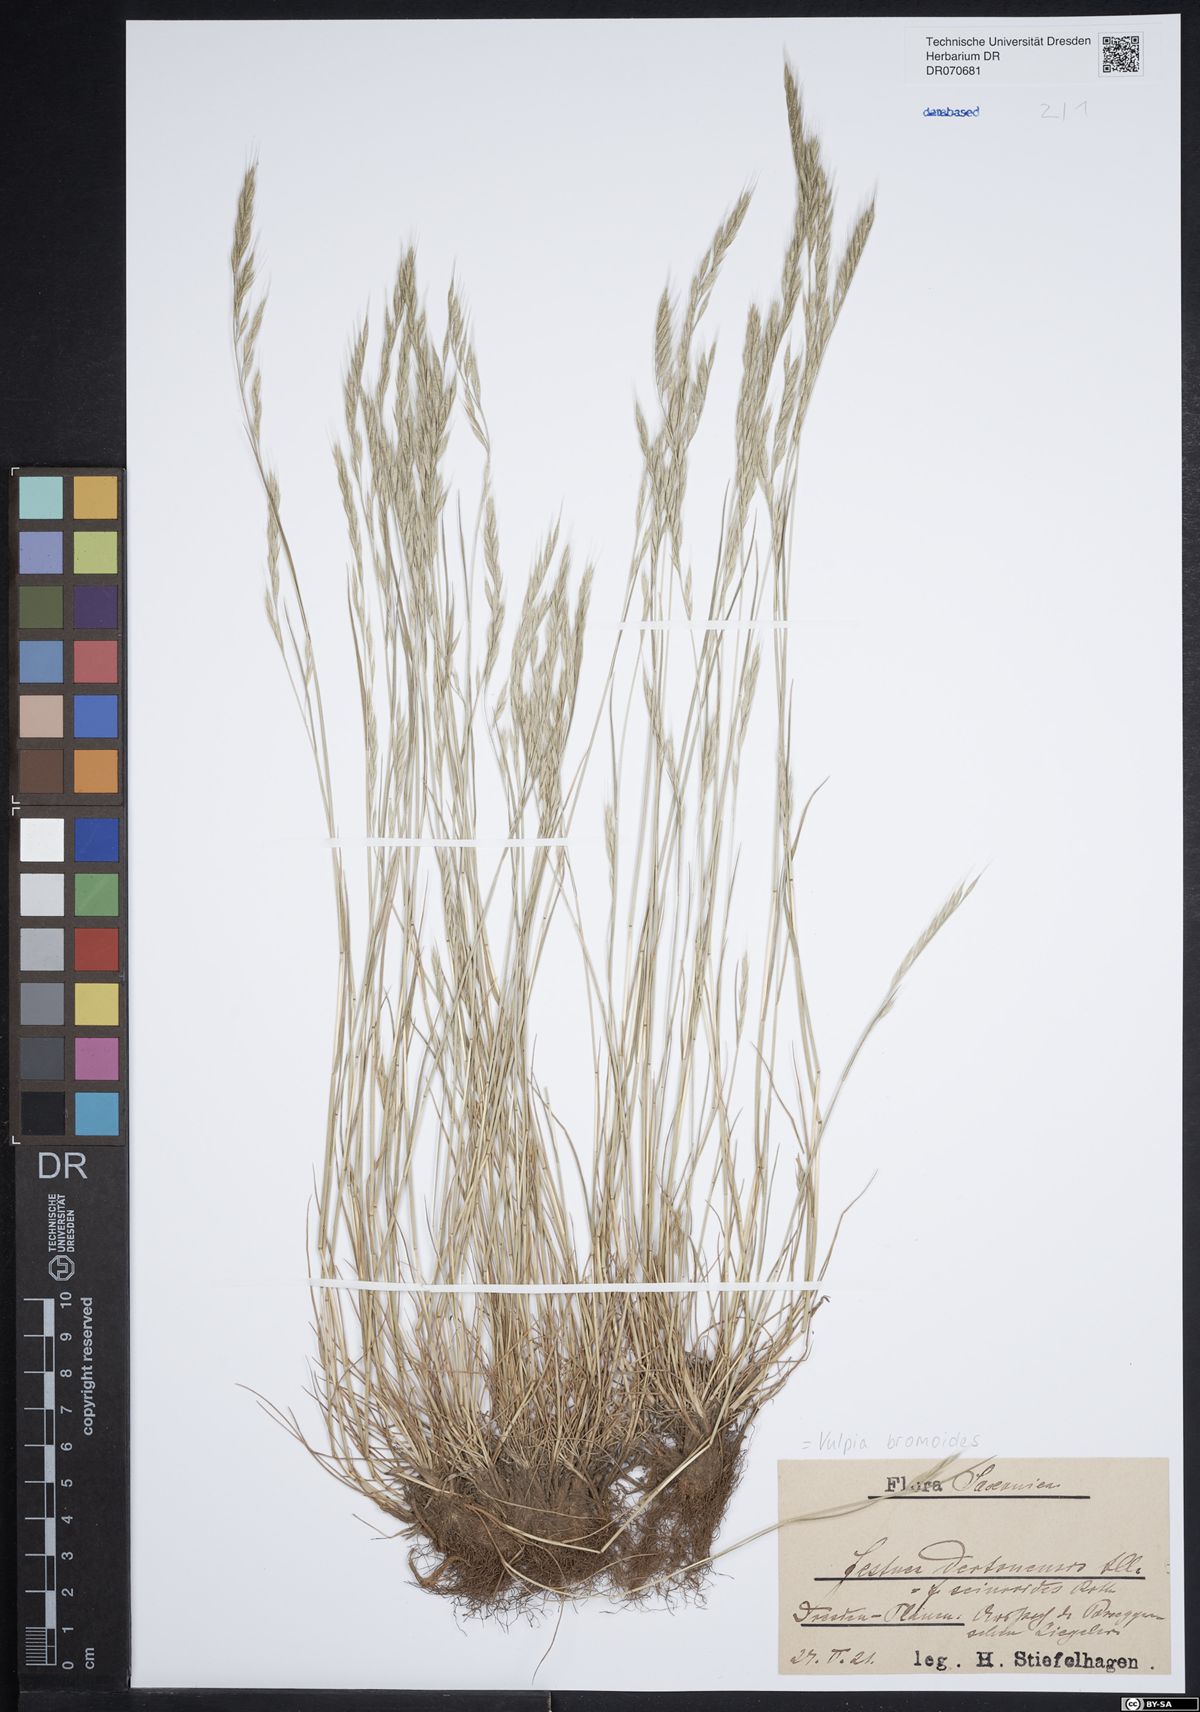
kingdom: Plantae
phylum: Tracheophyta
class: Liliopsida
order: Poales
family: Poaceae
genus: Festuca
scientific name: Festuca bromoides
